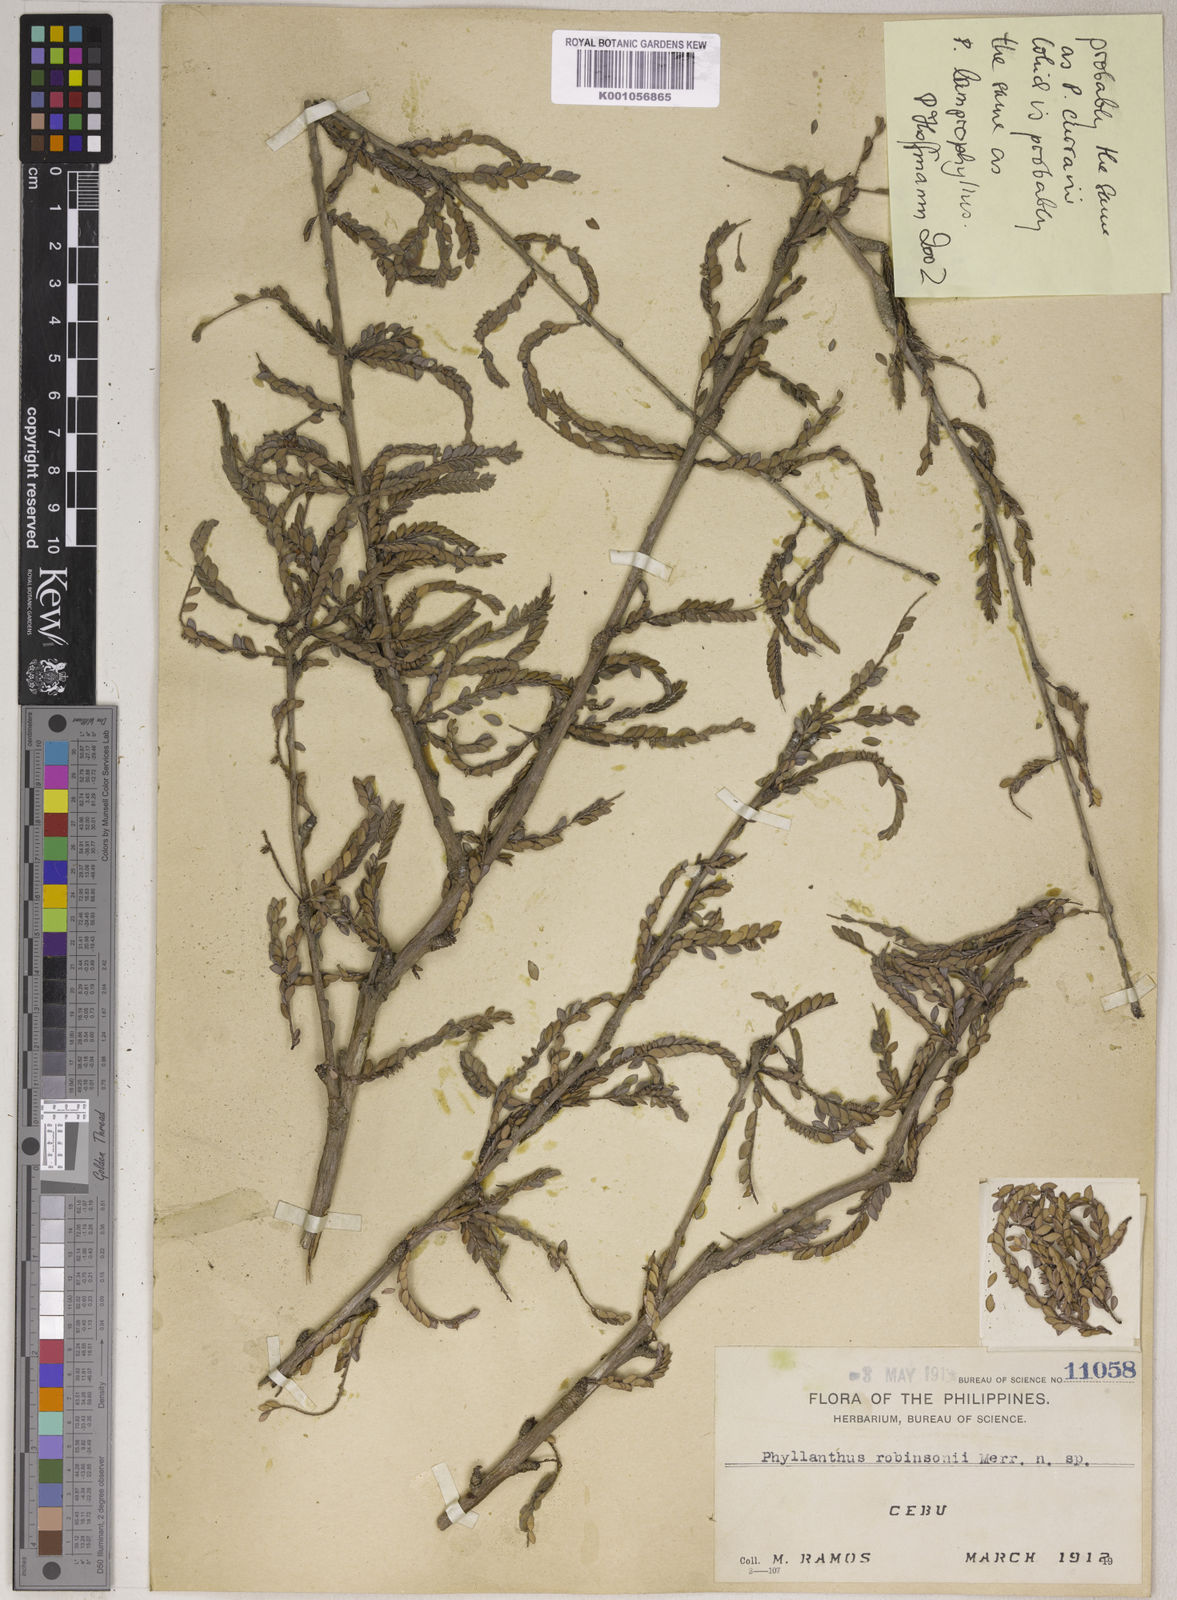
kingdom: Plantae
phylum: Tracheophyta
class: Magnoliopsida
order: Malpighiales
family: Phyllanthaceae
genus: Phyllanthus
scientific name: Phyllanthus robinsonii
